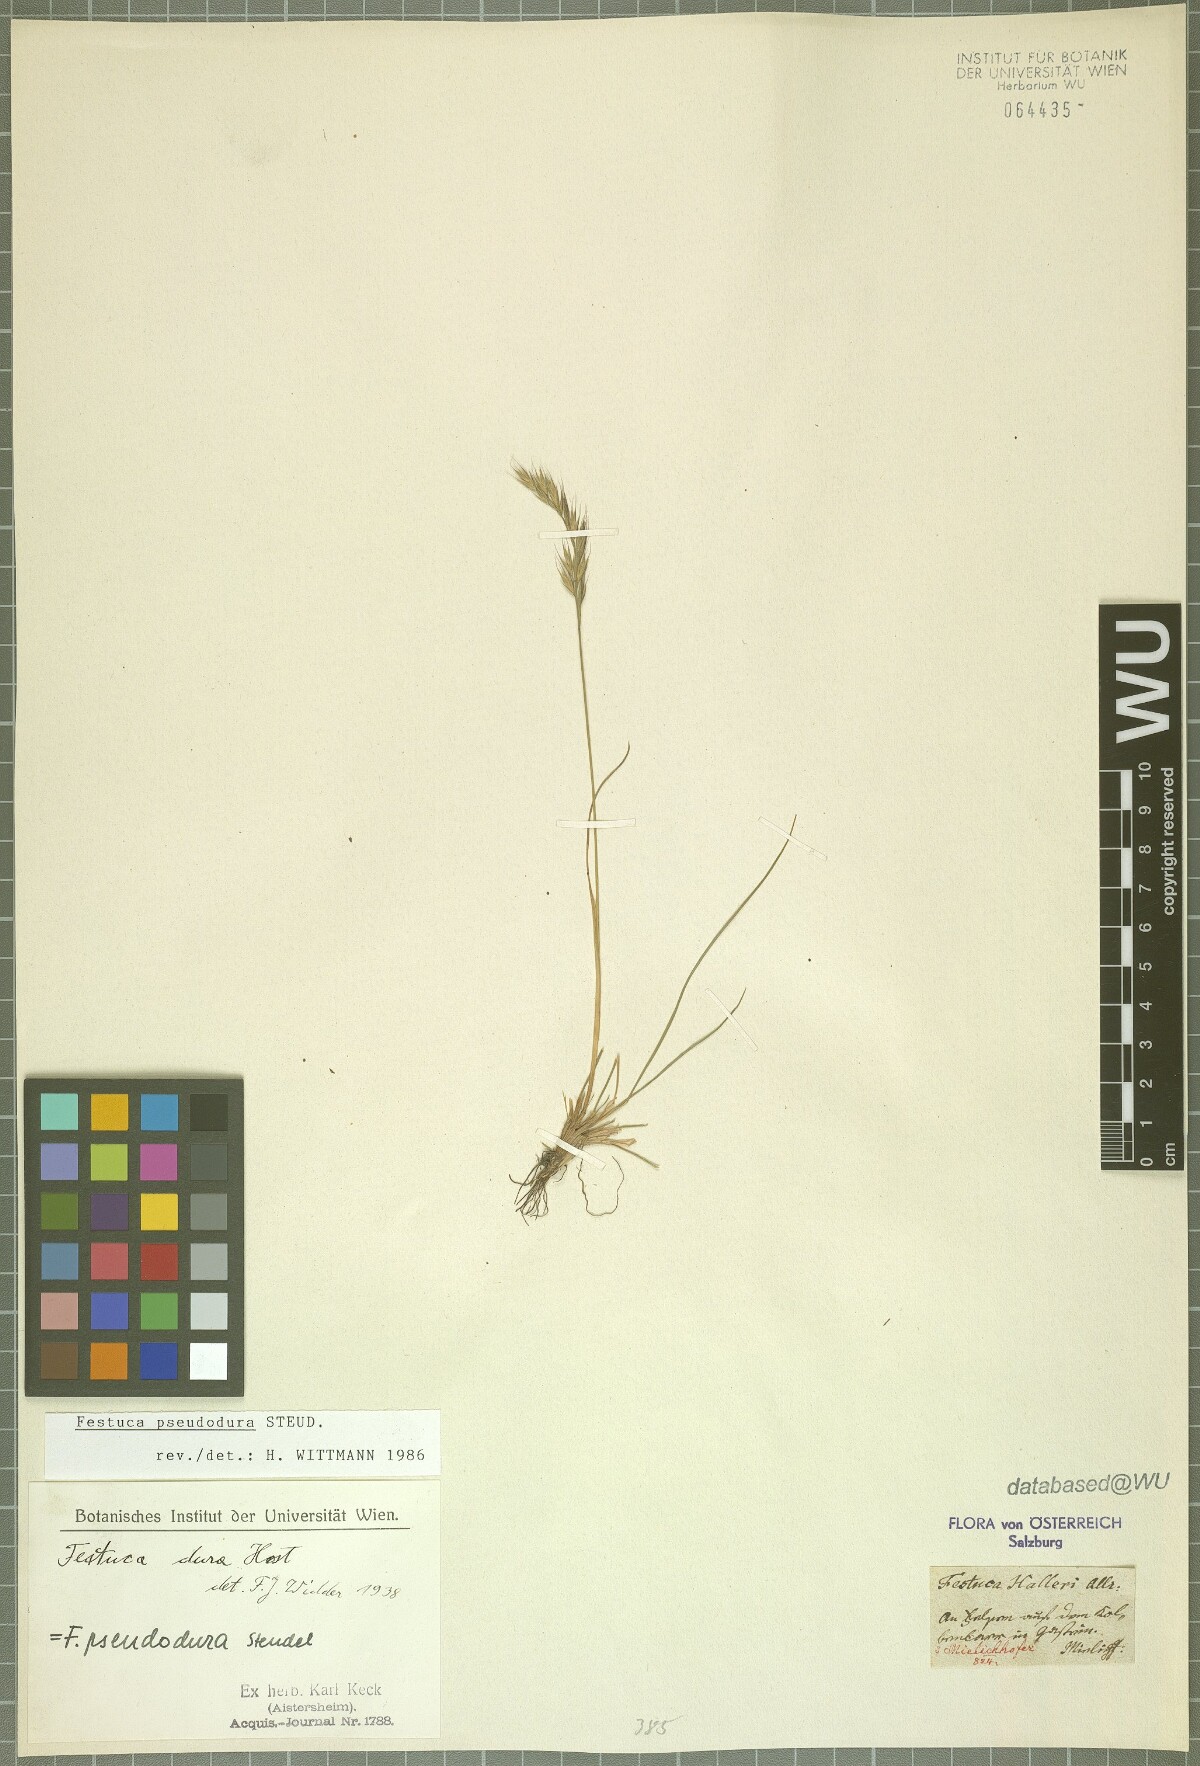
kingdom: Plantae
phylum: Tracheophyta
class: Liliopsida
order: Poales
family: Poaceae
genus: Festuca
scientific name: Festuca pseudodura
